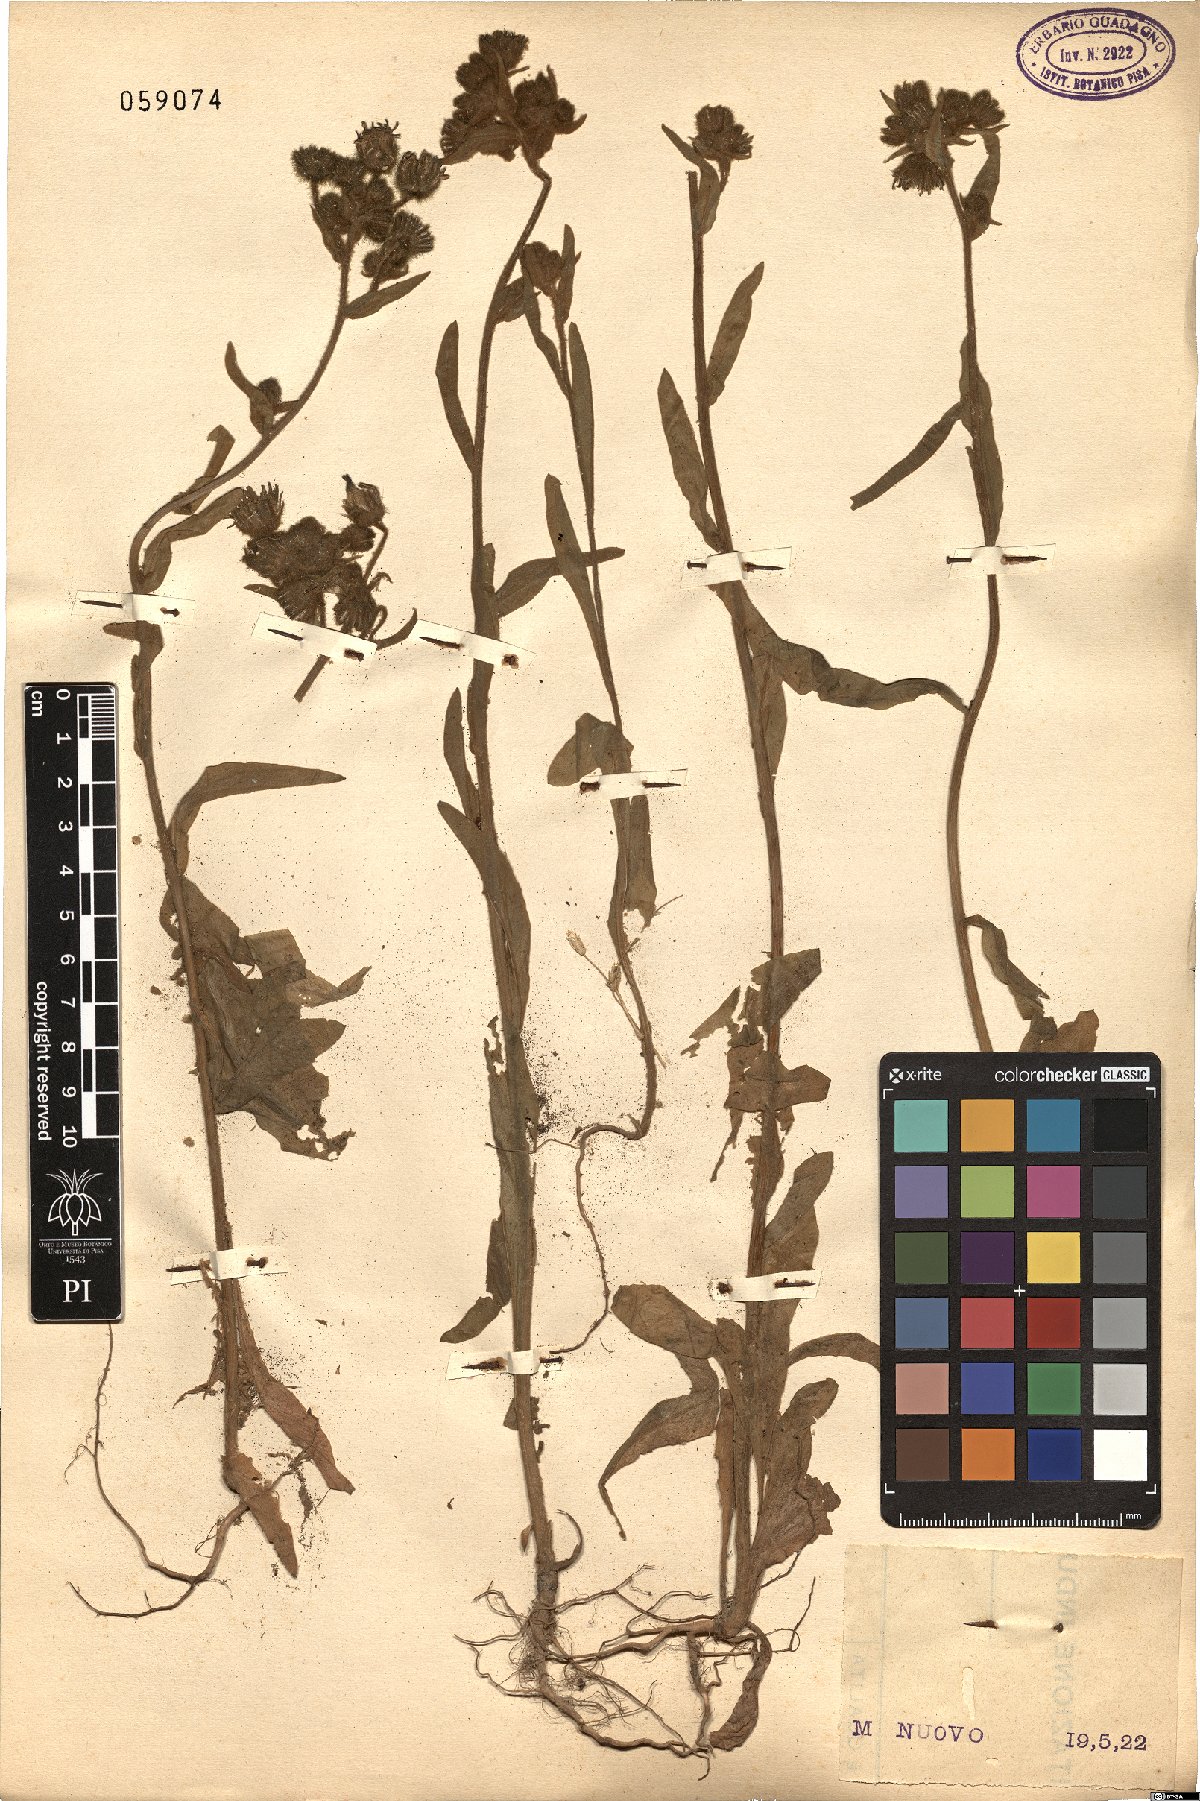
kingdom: Plantae
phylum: Tracheophyta
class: Magnoliopsida
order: Asterales
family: Asteraceae
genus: Andryala
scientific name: Andryala integrifolia
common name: Common andryala
